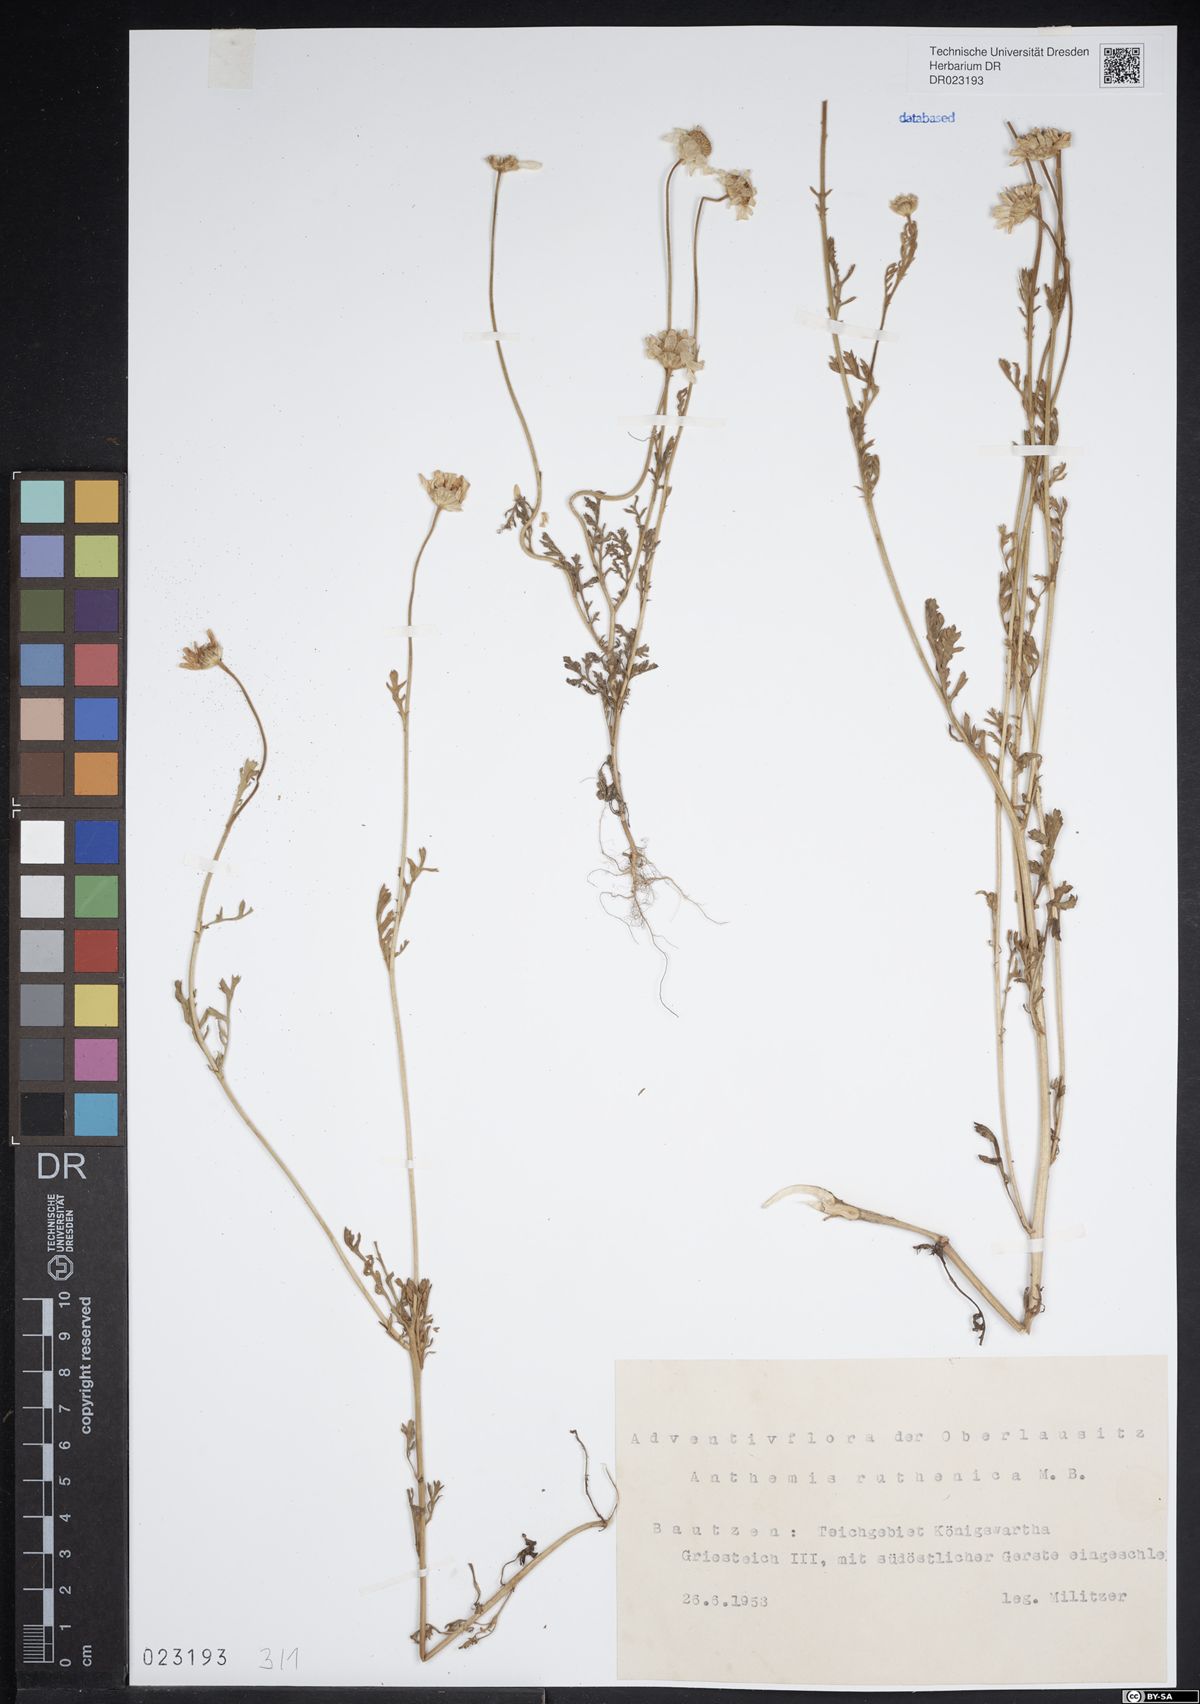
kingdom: Plantae
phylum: Tracheophyta
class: Magnoliopsida
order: Asterales
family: Asteraceae
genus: Anthemis
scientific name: Anthemis ruthenica
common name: Eastern chamomile
